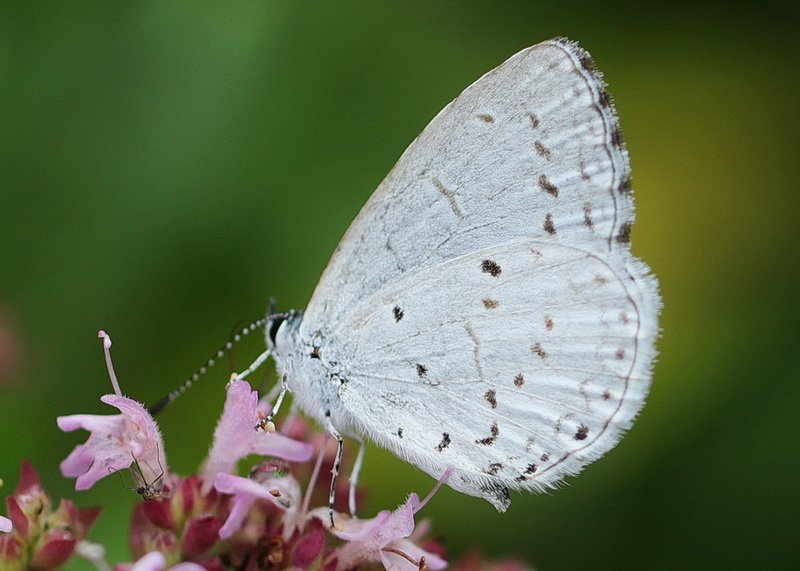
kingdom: Animalia
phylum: Arthropoda
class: Insecta
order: Lepidoptera
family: Lycaenidae
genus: Celastrina
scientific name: Celastrina lucia
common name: Northern Spring Azure
